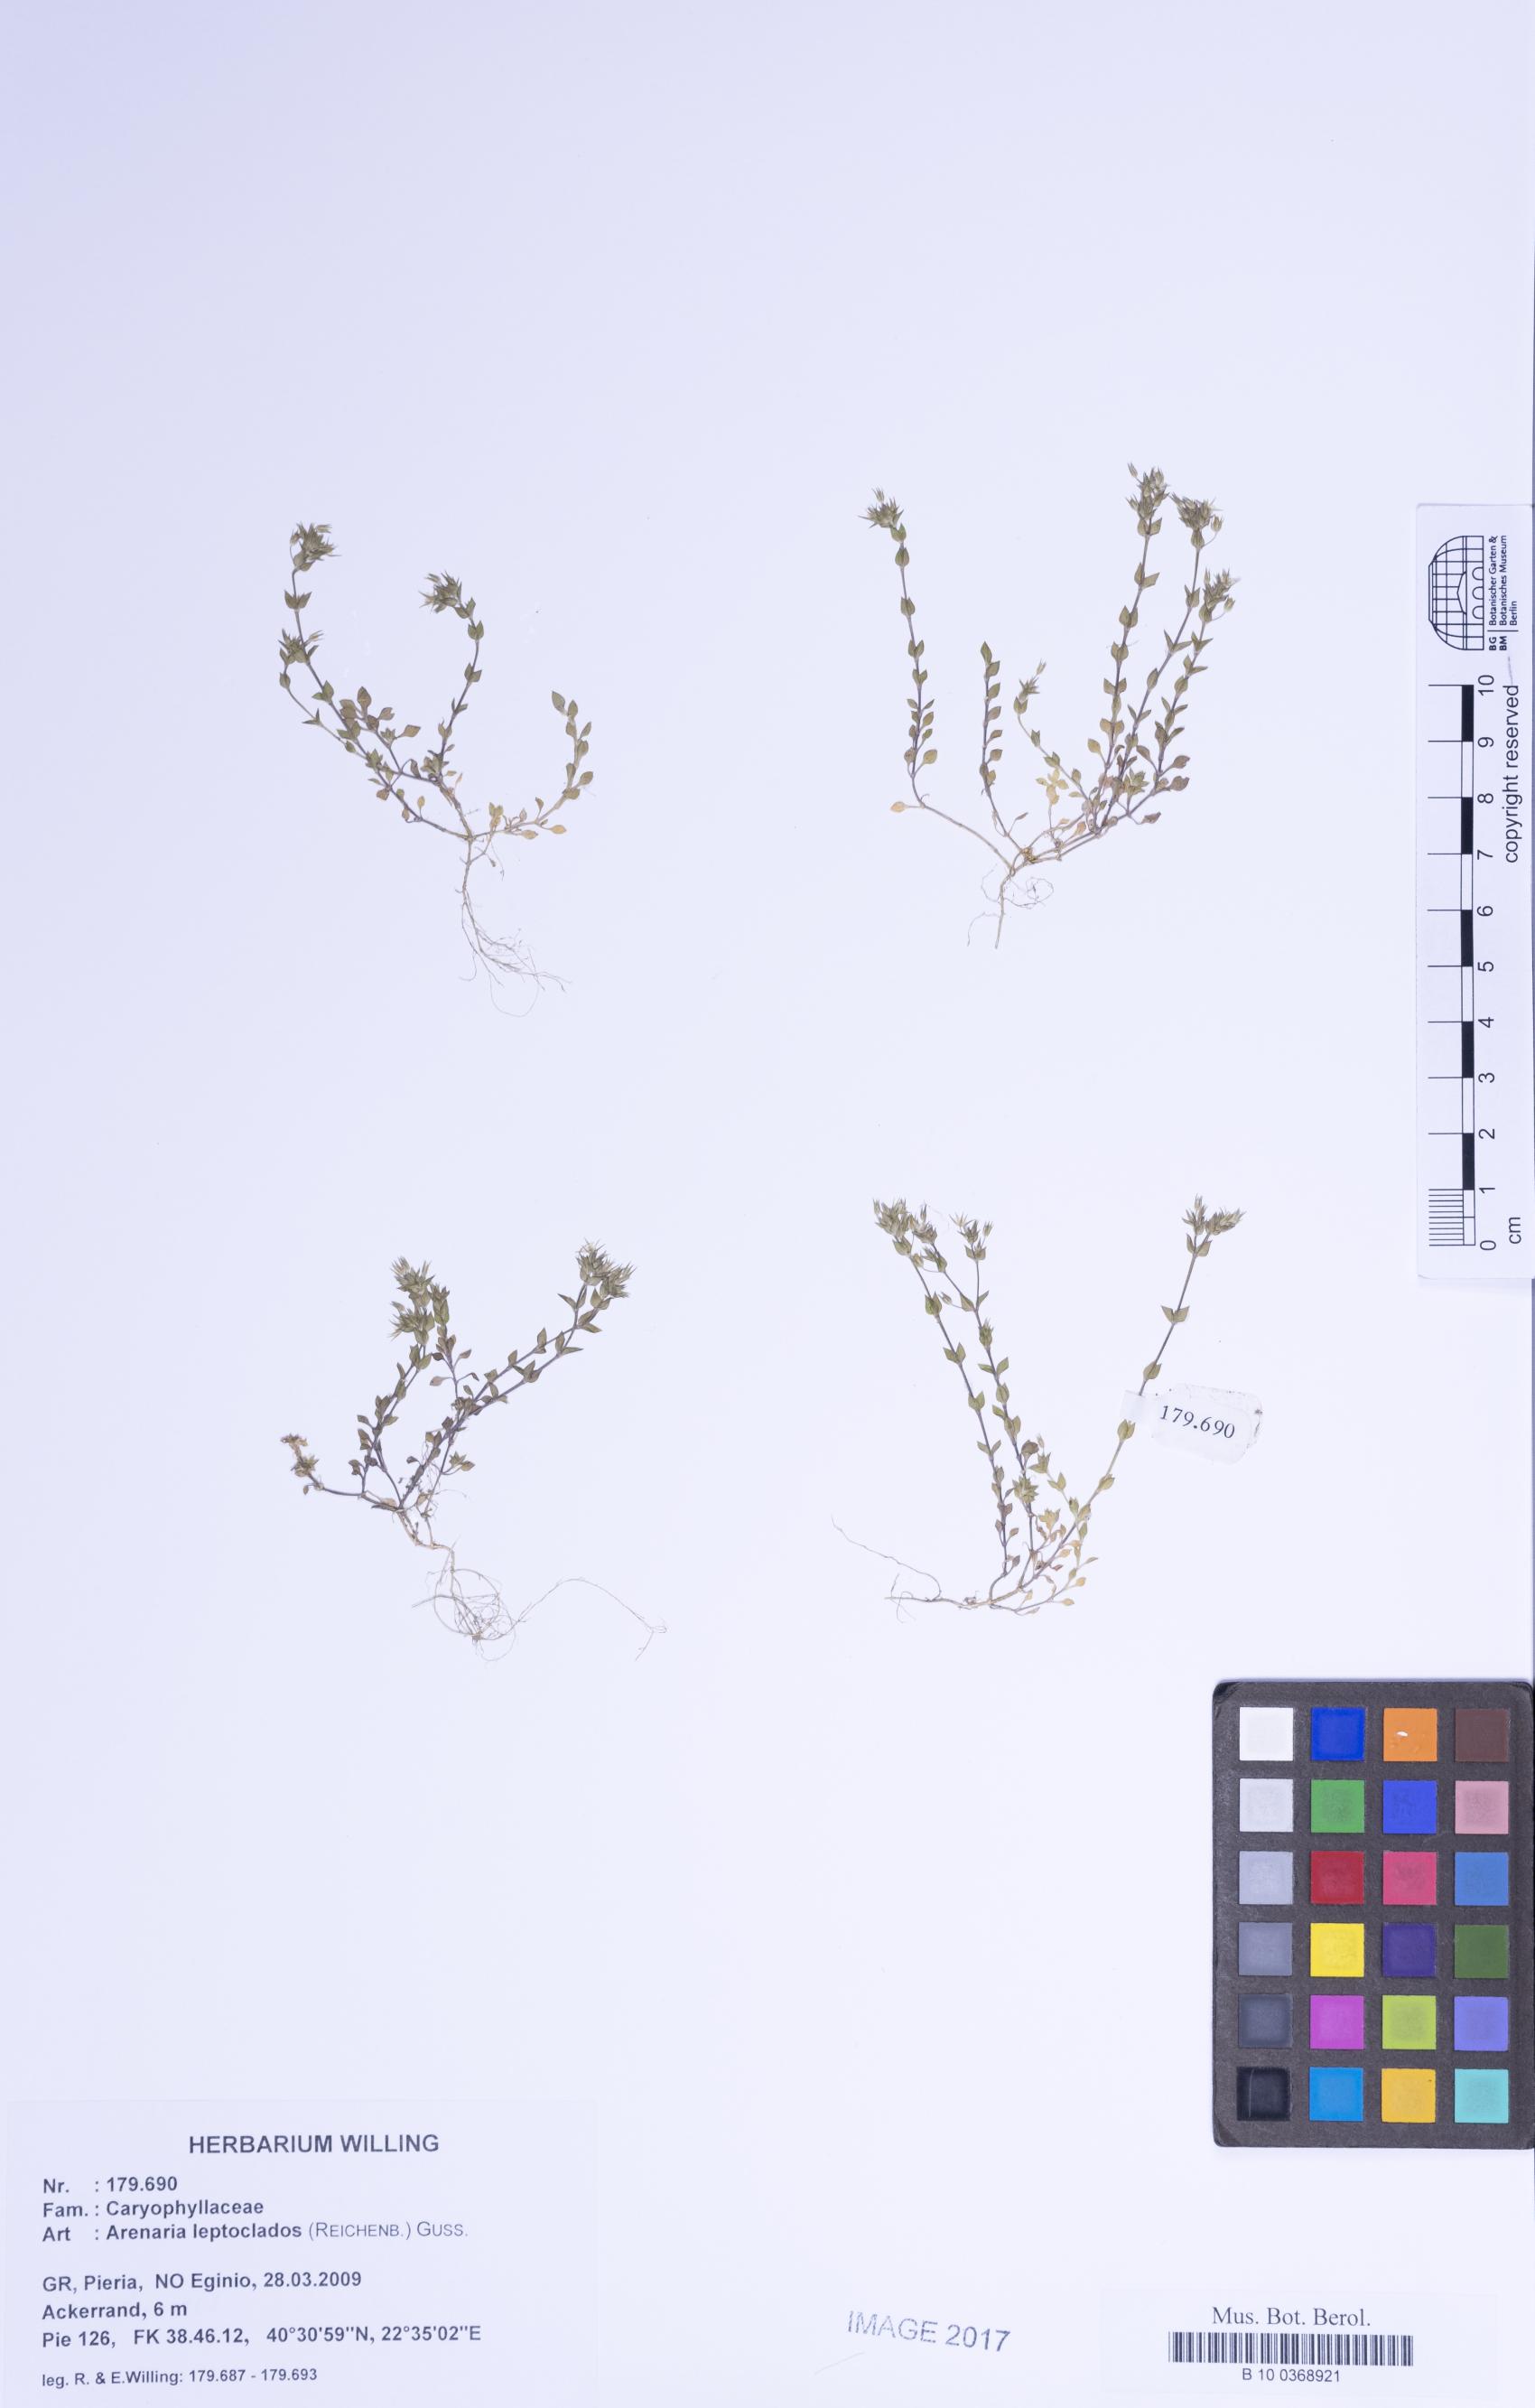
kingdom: Plantae
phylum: Tracheophyta
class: Magnoliopsida
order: Caryophyllales
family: Caryophyllaceae
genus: Arenaria
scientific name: Arenaria leptoclados
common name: Thyme-leaved sandwort
